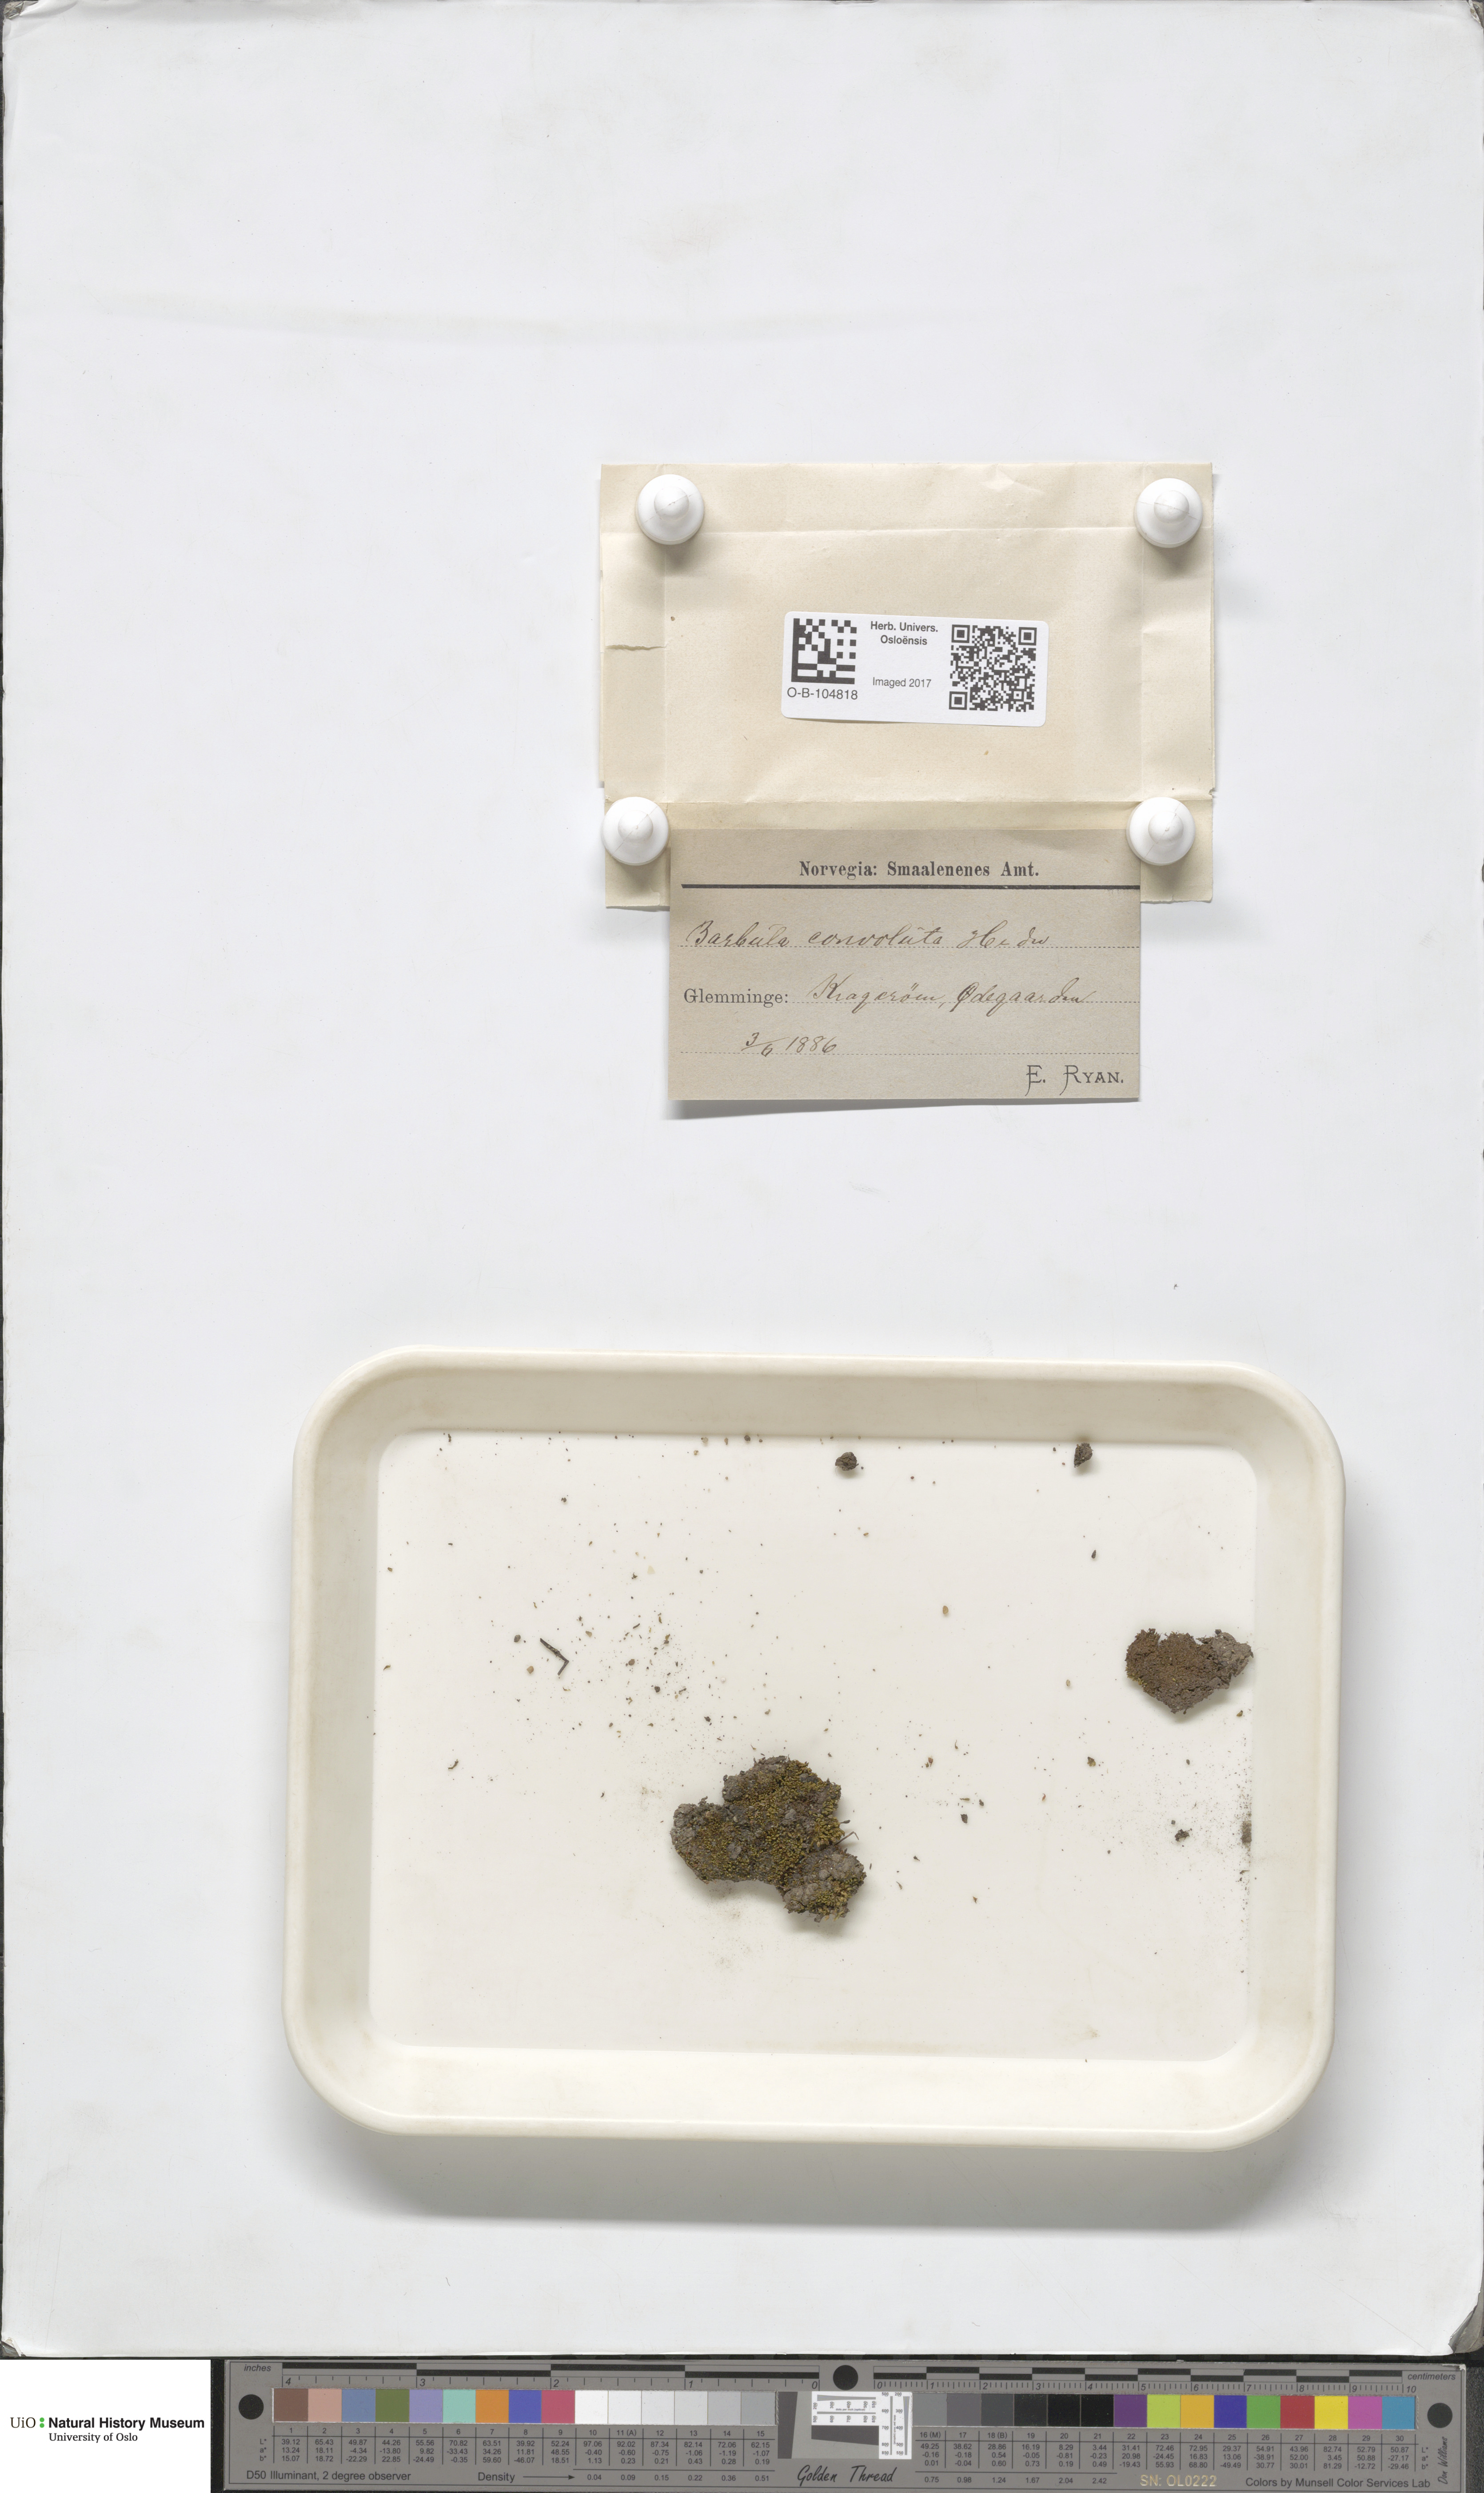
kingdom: Plantae
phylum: Bryophyta
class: Bryopsida
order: Pottiales
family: Pottiaceae
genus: Streblotrichum
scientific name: Streblotrichum convolutum
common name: Lesser bird's-claw beard-moss
